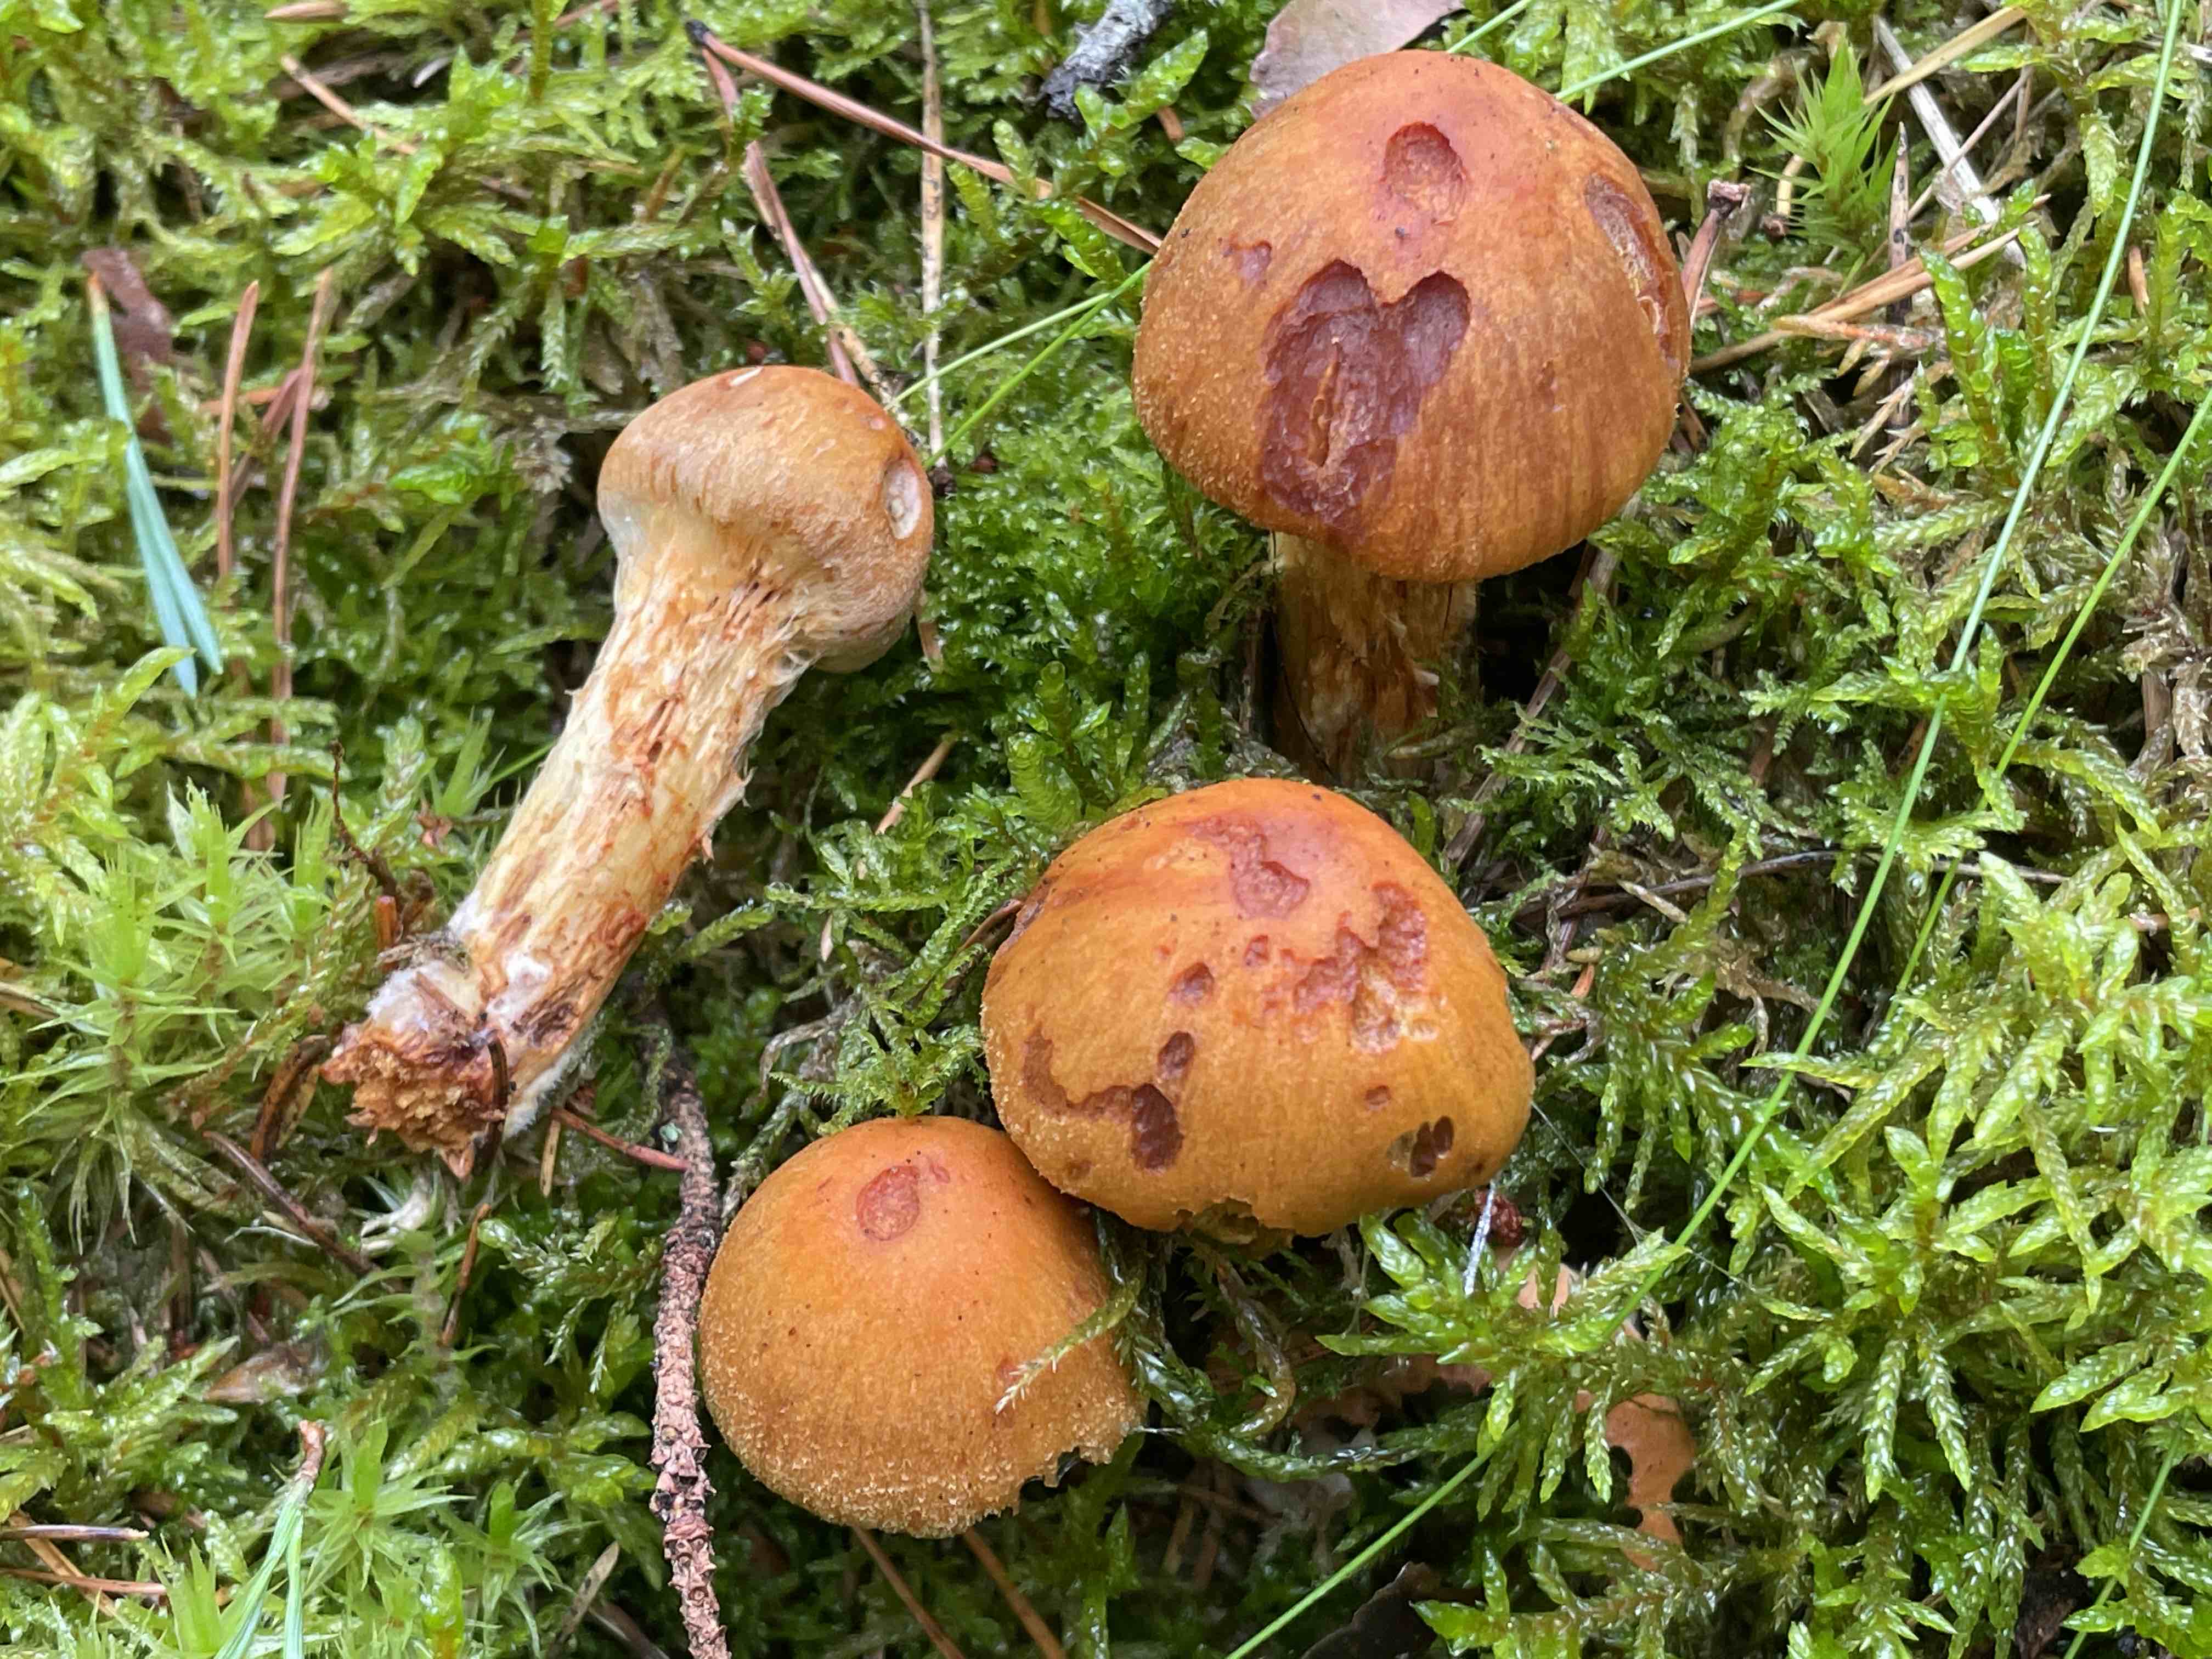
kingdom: Fungi
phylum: Basidiomycota
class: Agaricomycetes
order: Agaricales
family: Cortinariaceae
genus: Aureonarius
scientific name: Aureonarius limonius
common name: orangegul slørhat
